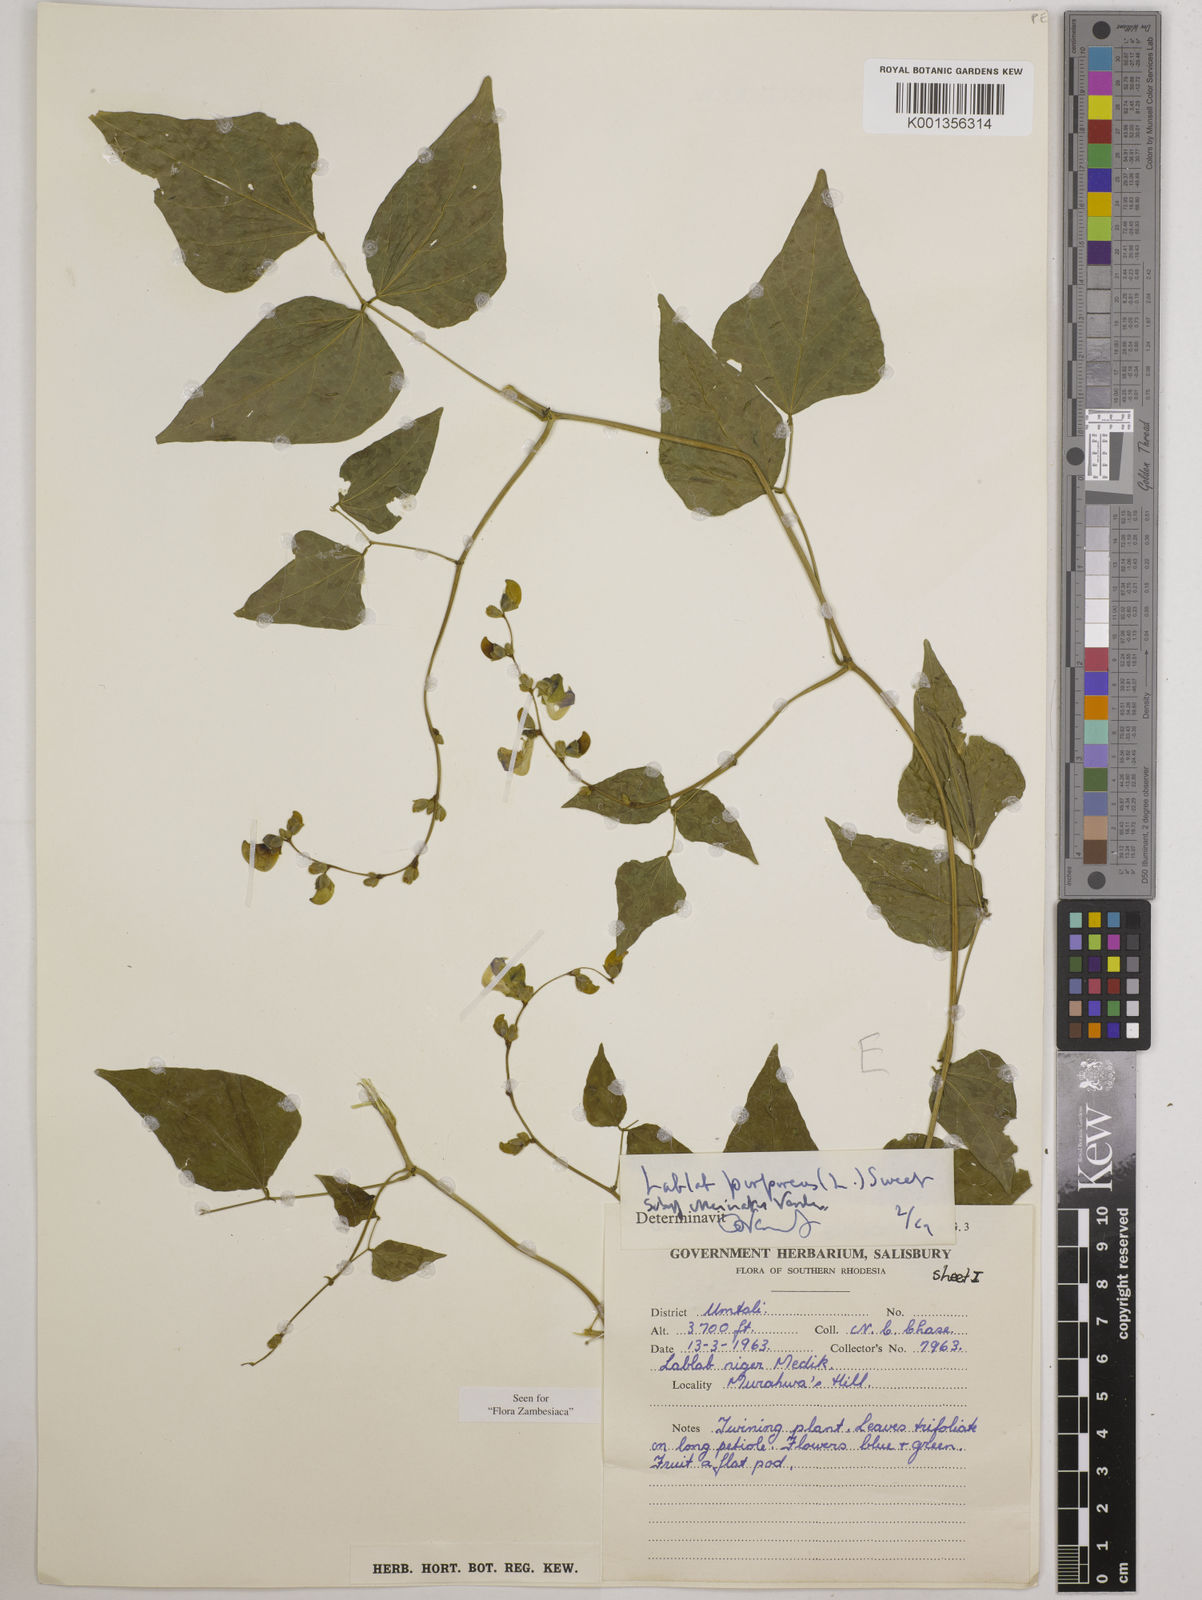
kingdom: Plantae
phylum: Tracheophyta
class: Magnoliopsida
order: Fabales
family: Fabaceae
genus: Lablab
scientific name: Lablab purpureus
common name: Lablab-bean
